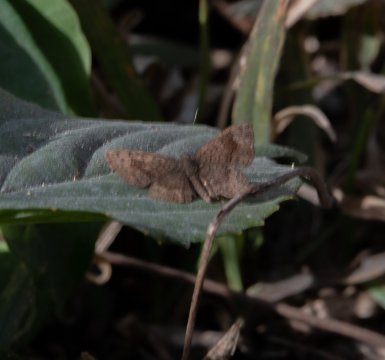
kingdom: Animalia
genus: Calephelis
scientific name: Calephelis
